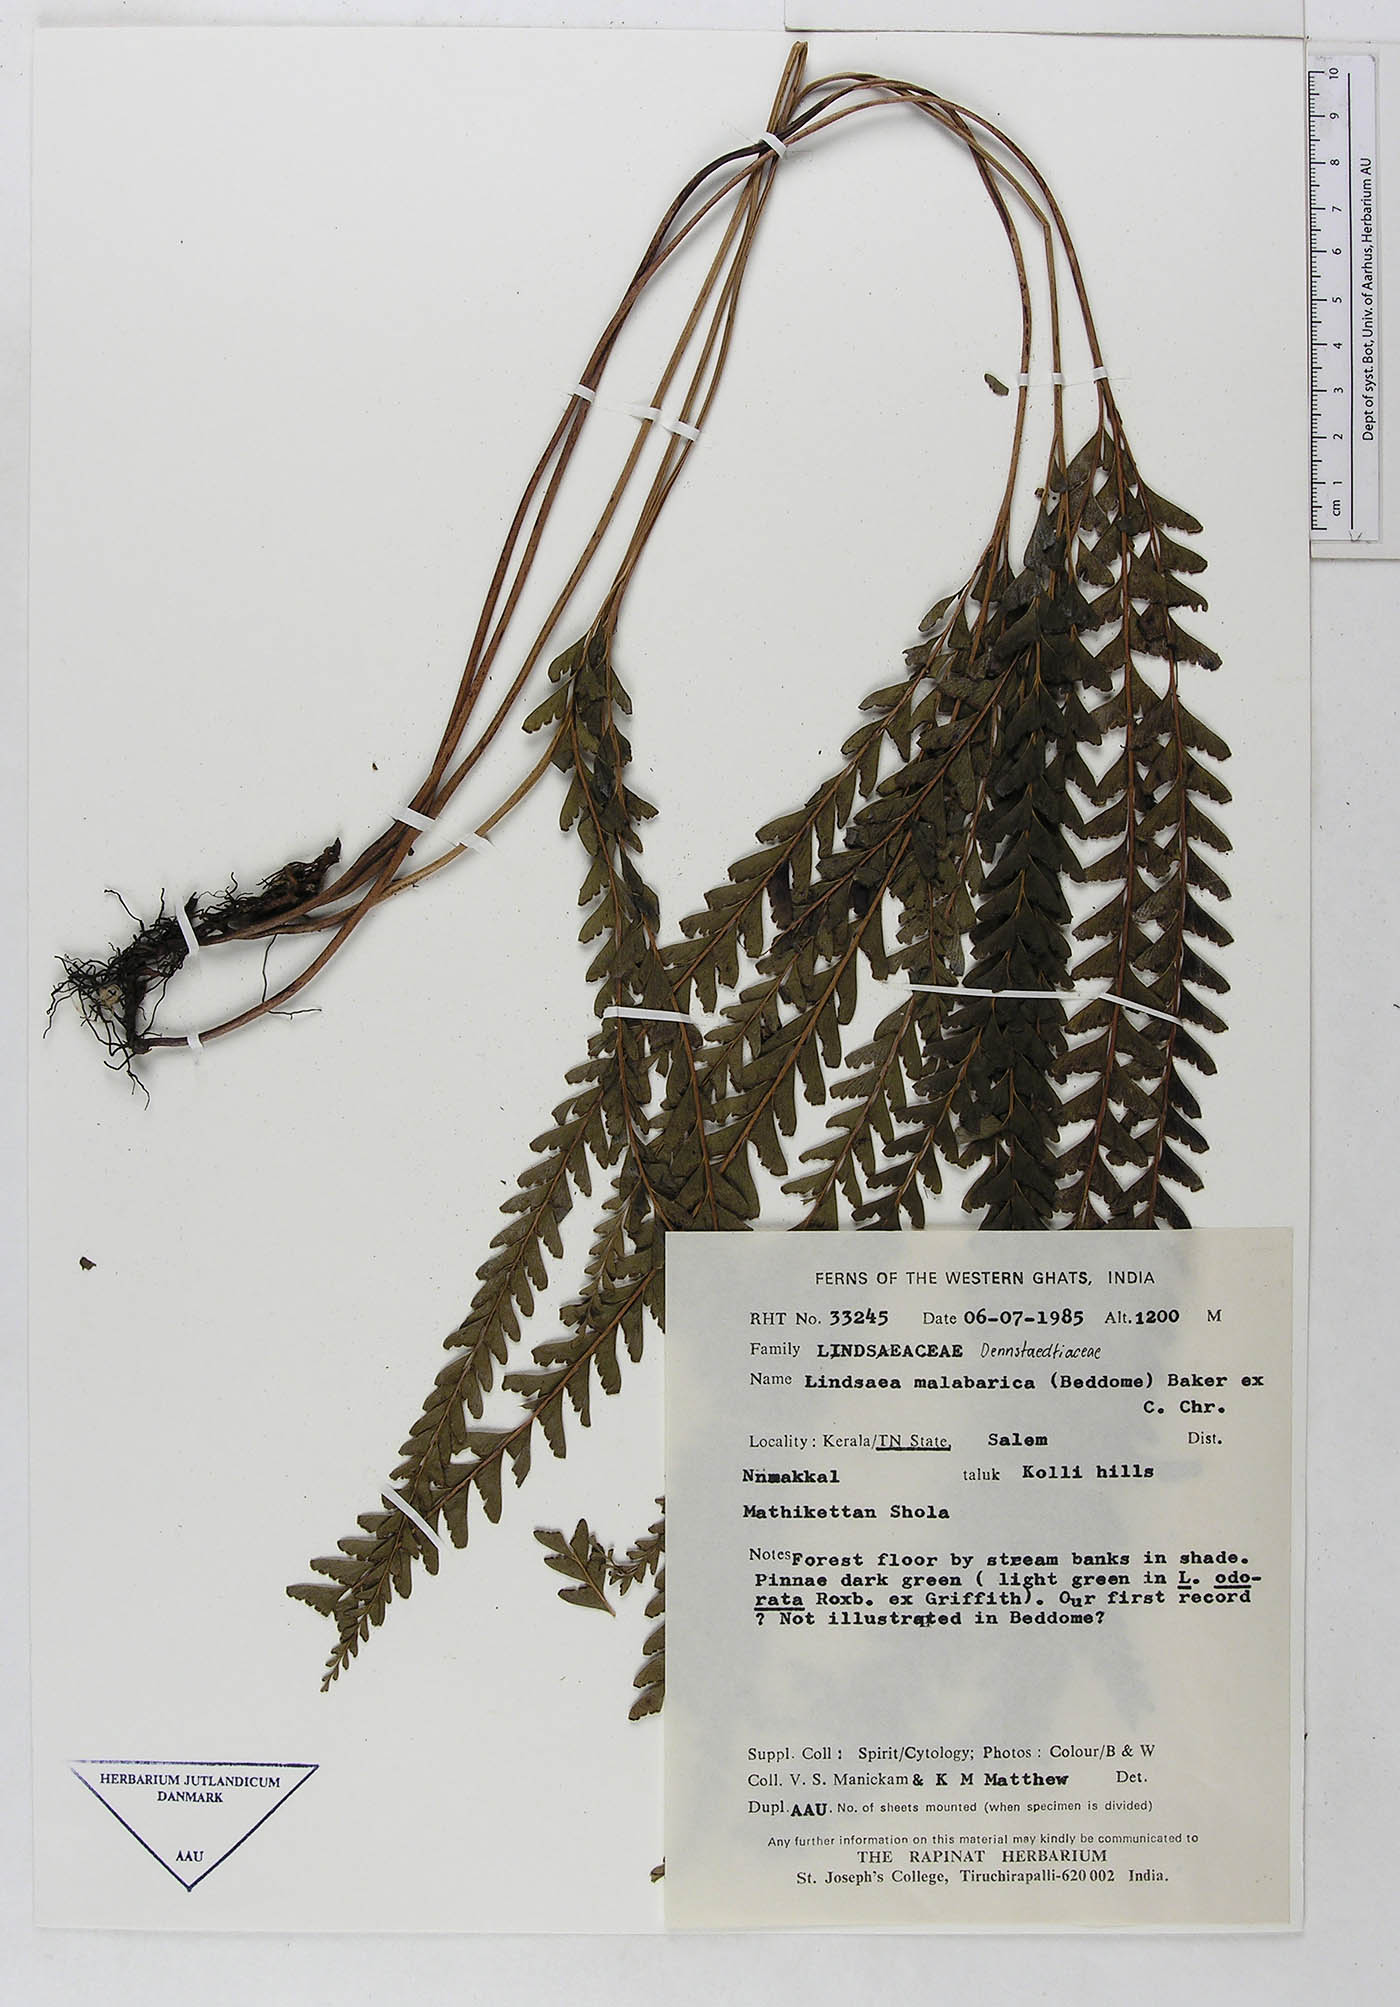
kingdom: Plantae
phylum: Tracheophyta
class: Polypodiopsida
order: Polypodiales
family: Dennstaedtiaceae
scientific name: Dennstaedtiaceae
